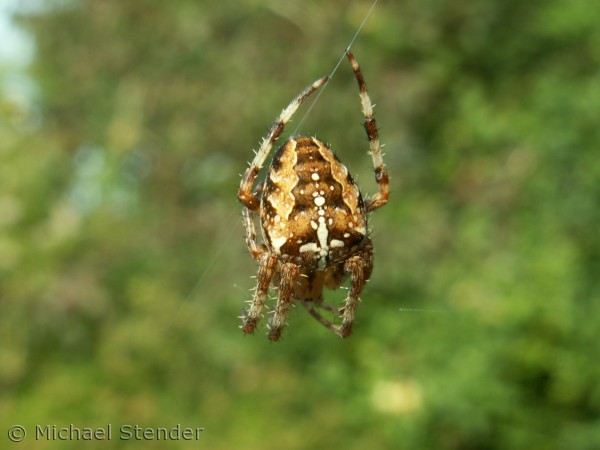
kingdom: Animalia
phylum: Arthropoda
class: Arachnida
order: Araneae
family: Araneidae
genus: Araneus
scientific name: Araneus diadematus
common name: Korsedderkop
